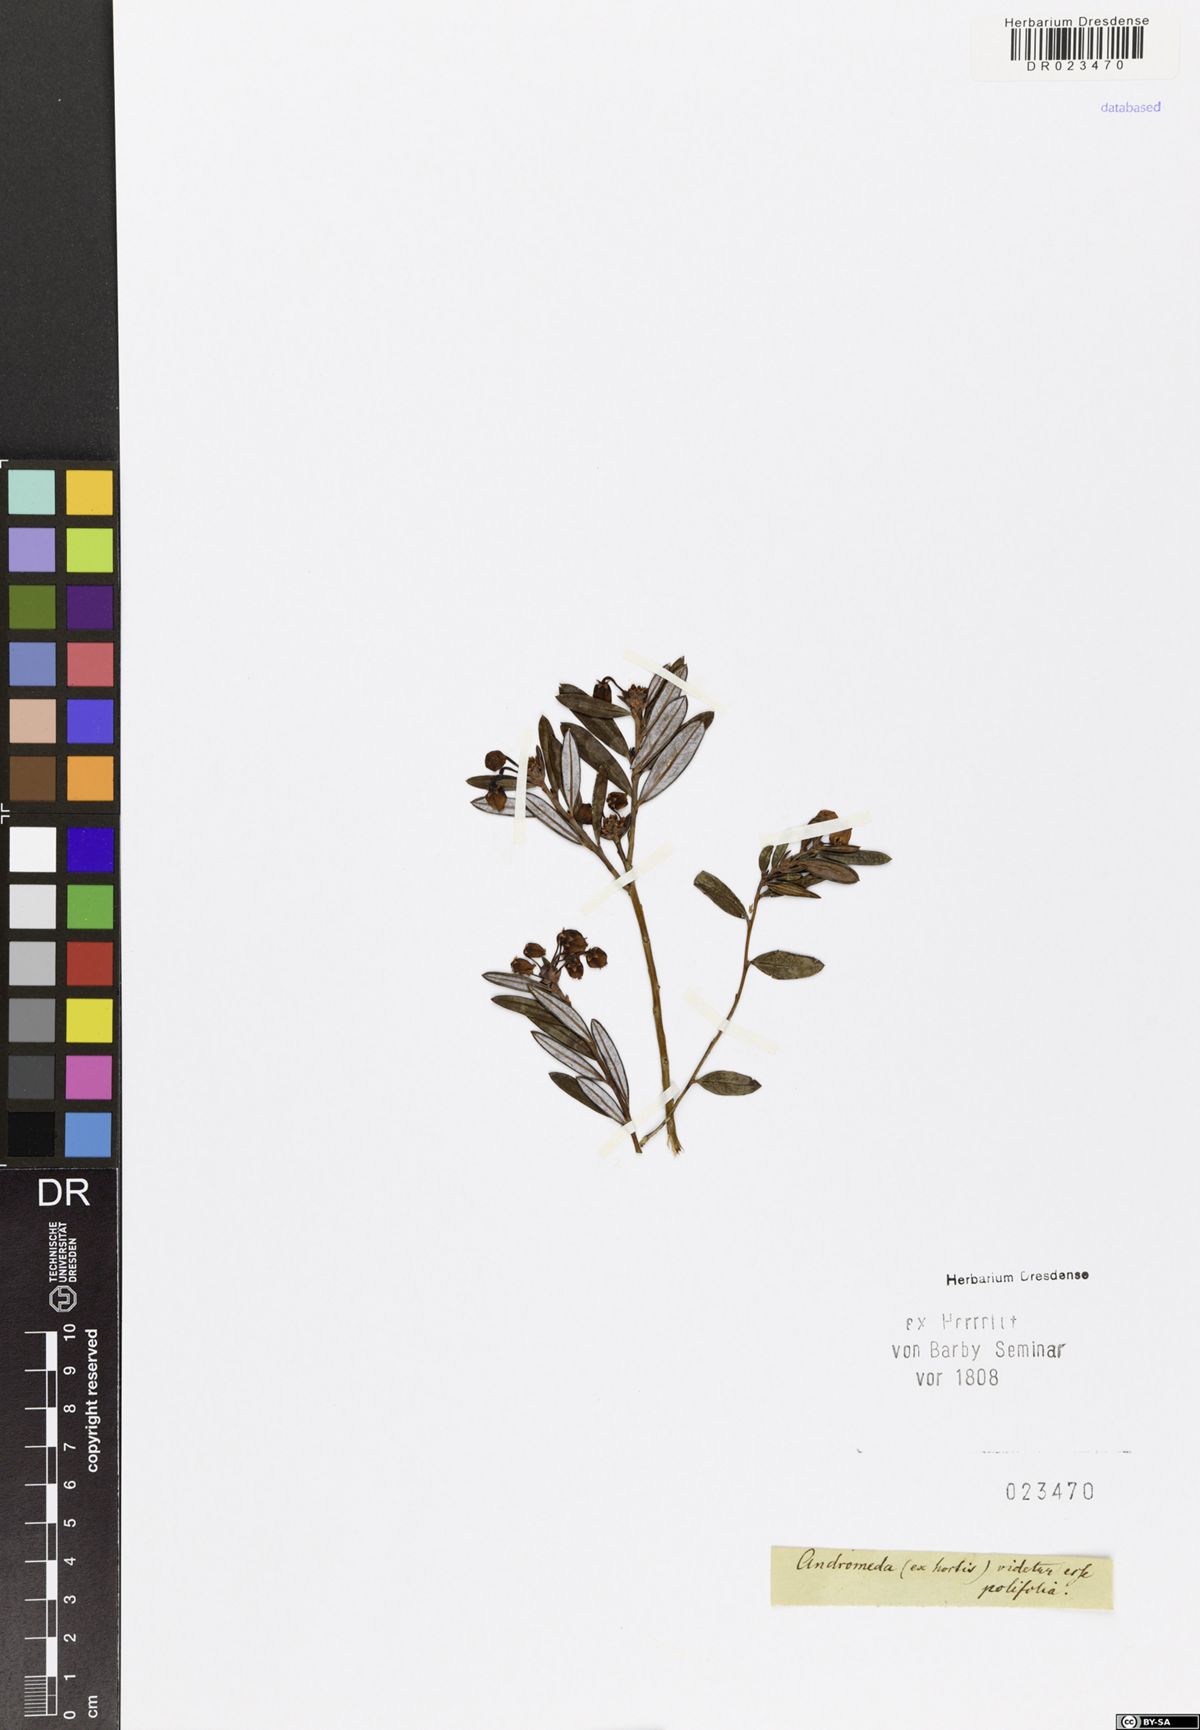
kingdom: Plantae
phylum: Tracheophyta
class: Magnoliopsida
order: Ericales
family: Ericaceae
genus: Andromeda
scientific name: Andromeda polifolia
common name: Bog-rosemary
